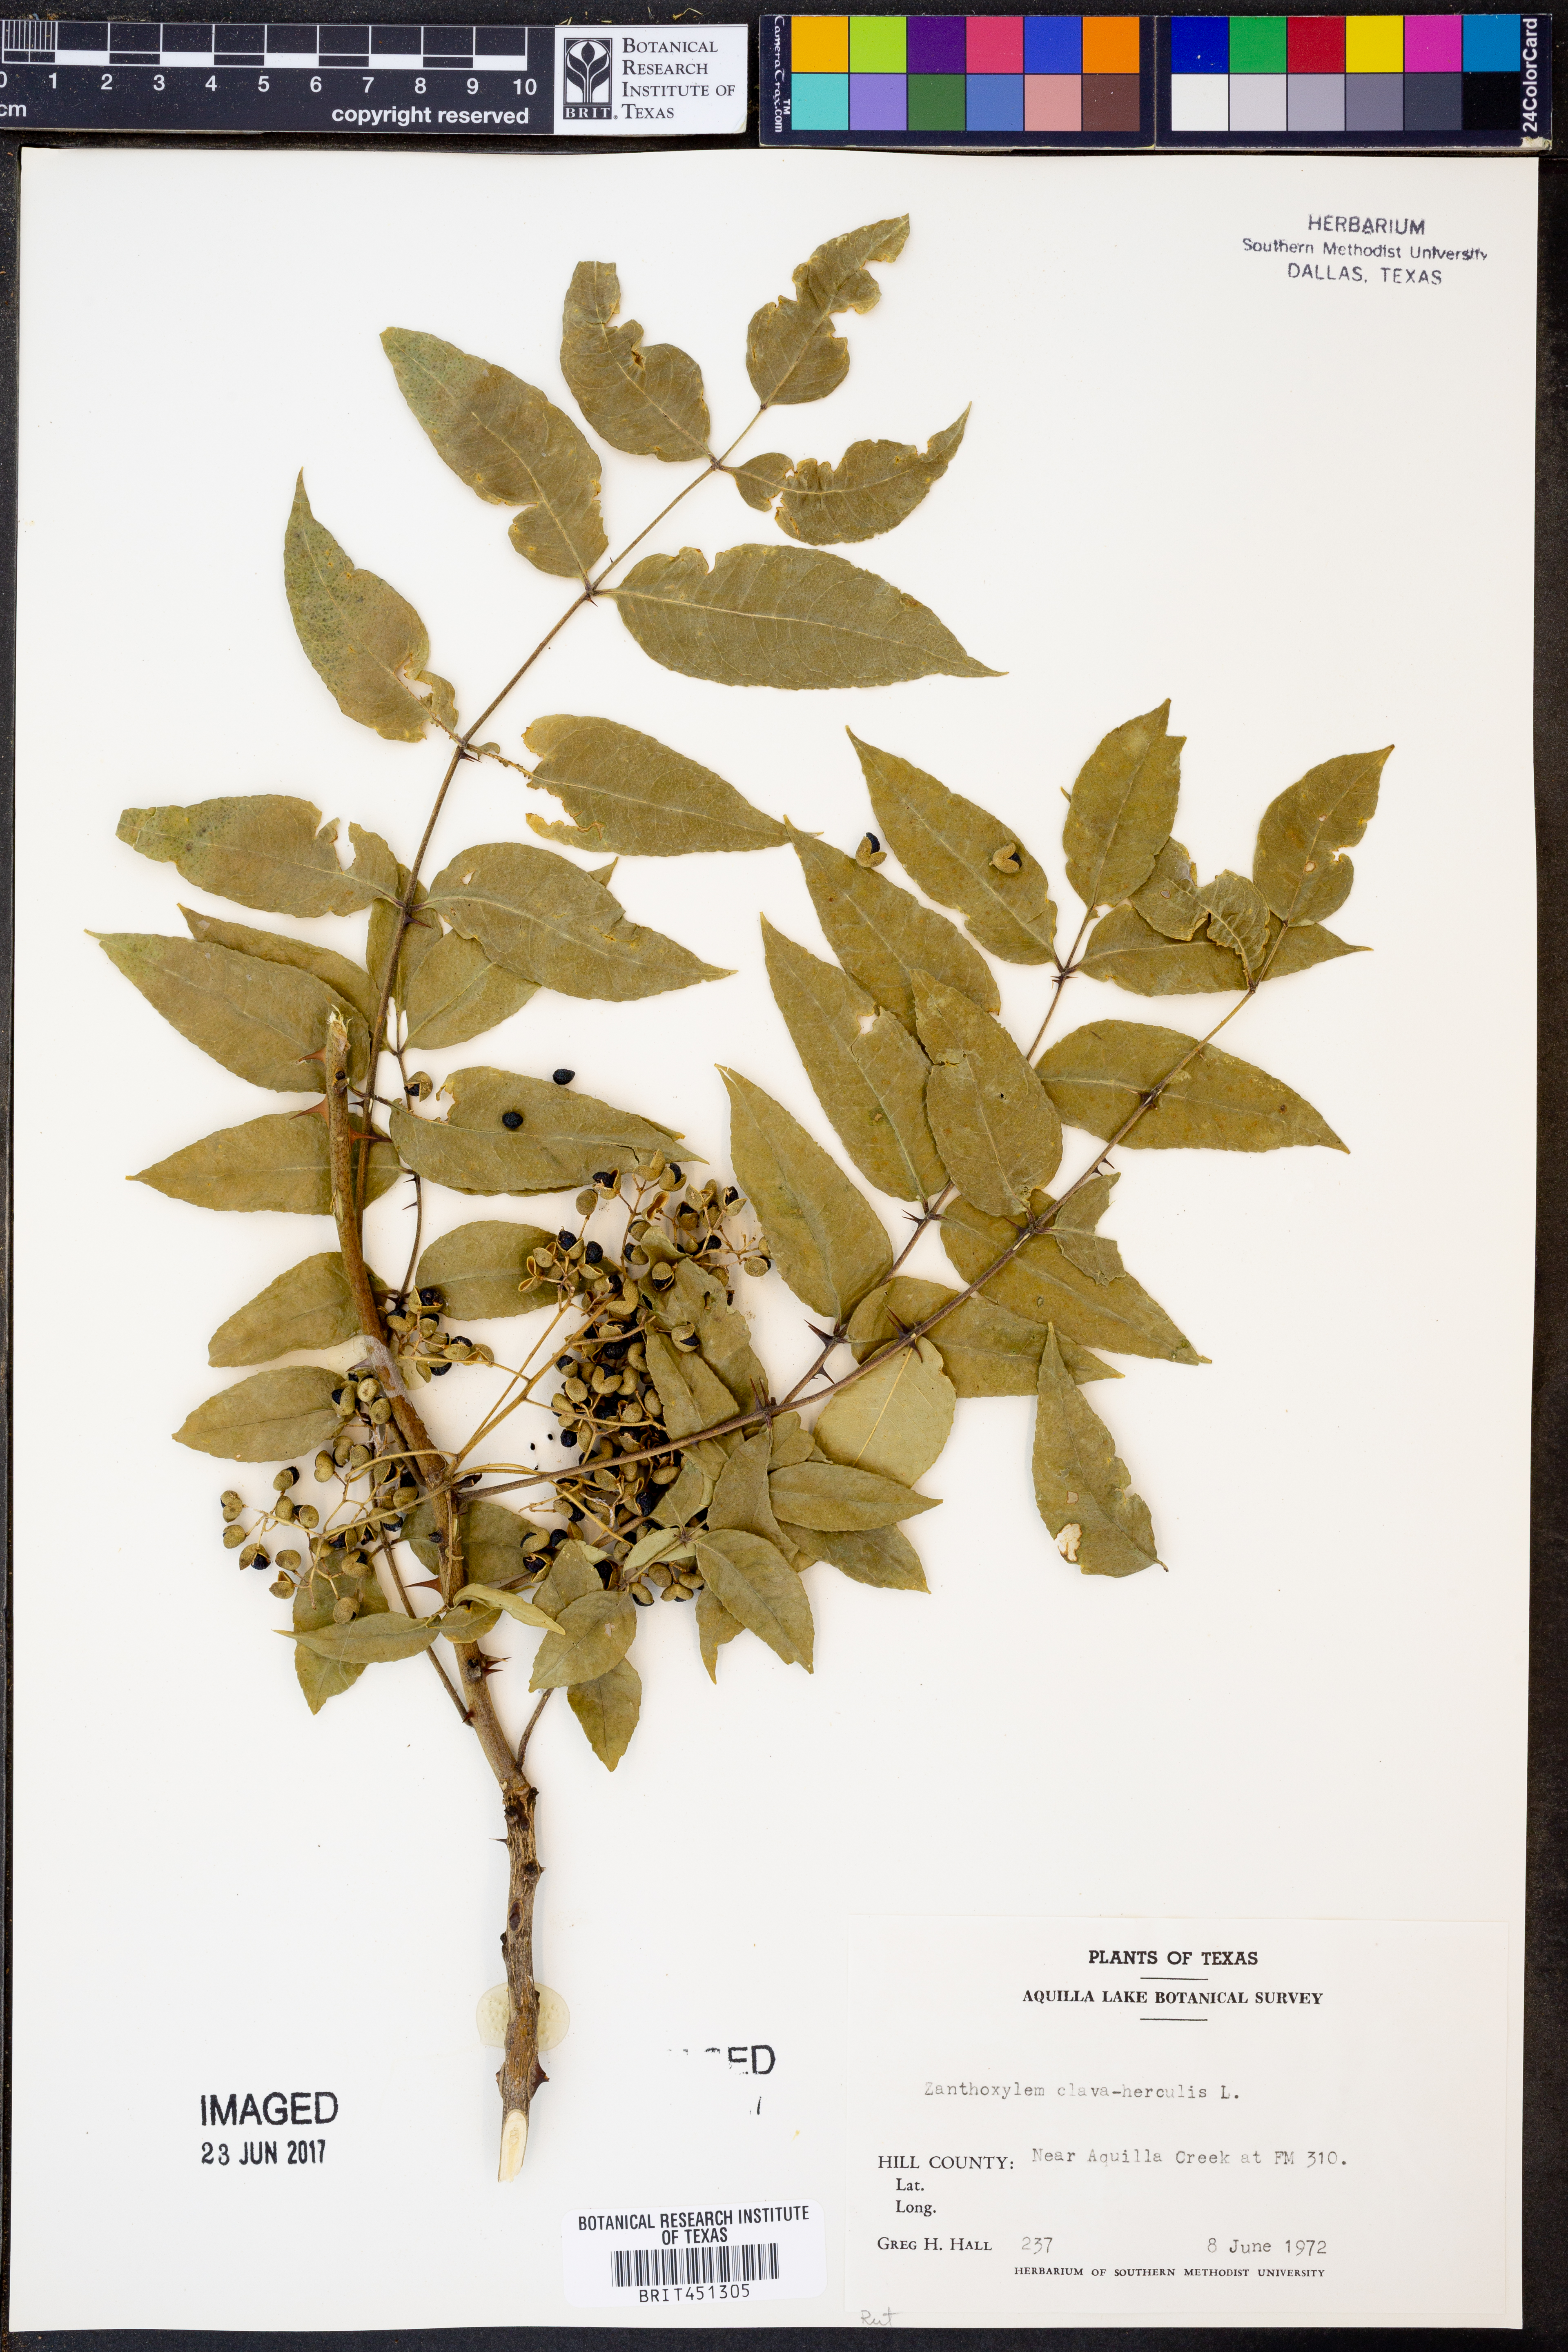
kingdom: Plantae
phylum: Tracheophyta
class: Magnoliopsida
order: Sapindales
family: Rutaceae
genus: Zanthoxylum
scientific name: Zanthoxylum avicennae
